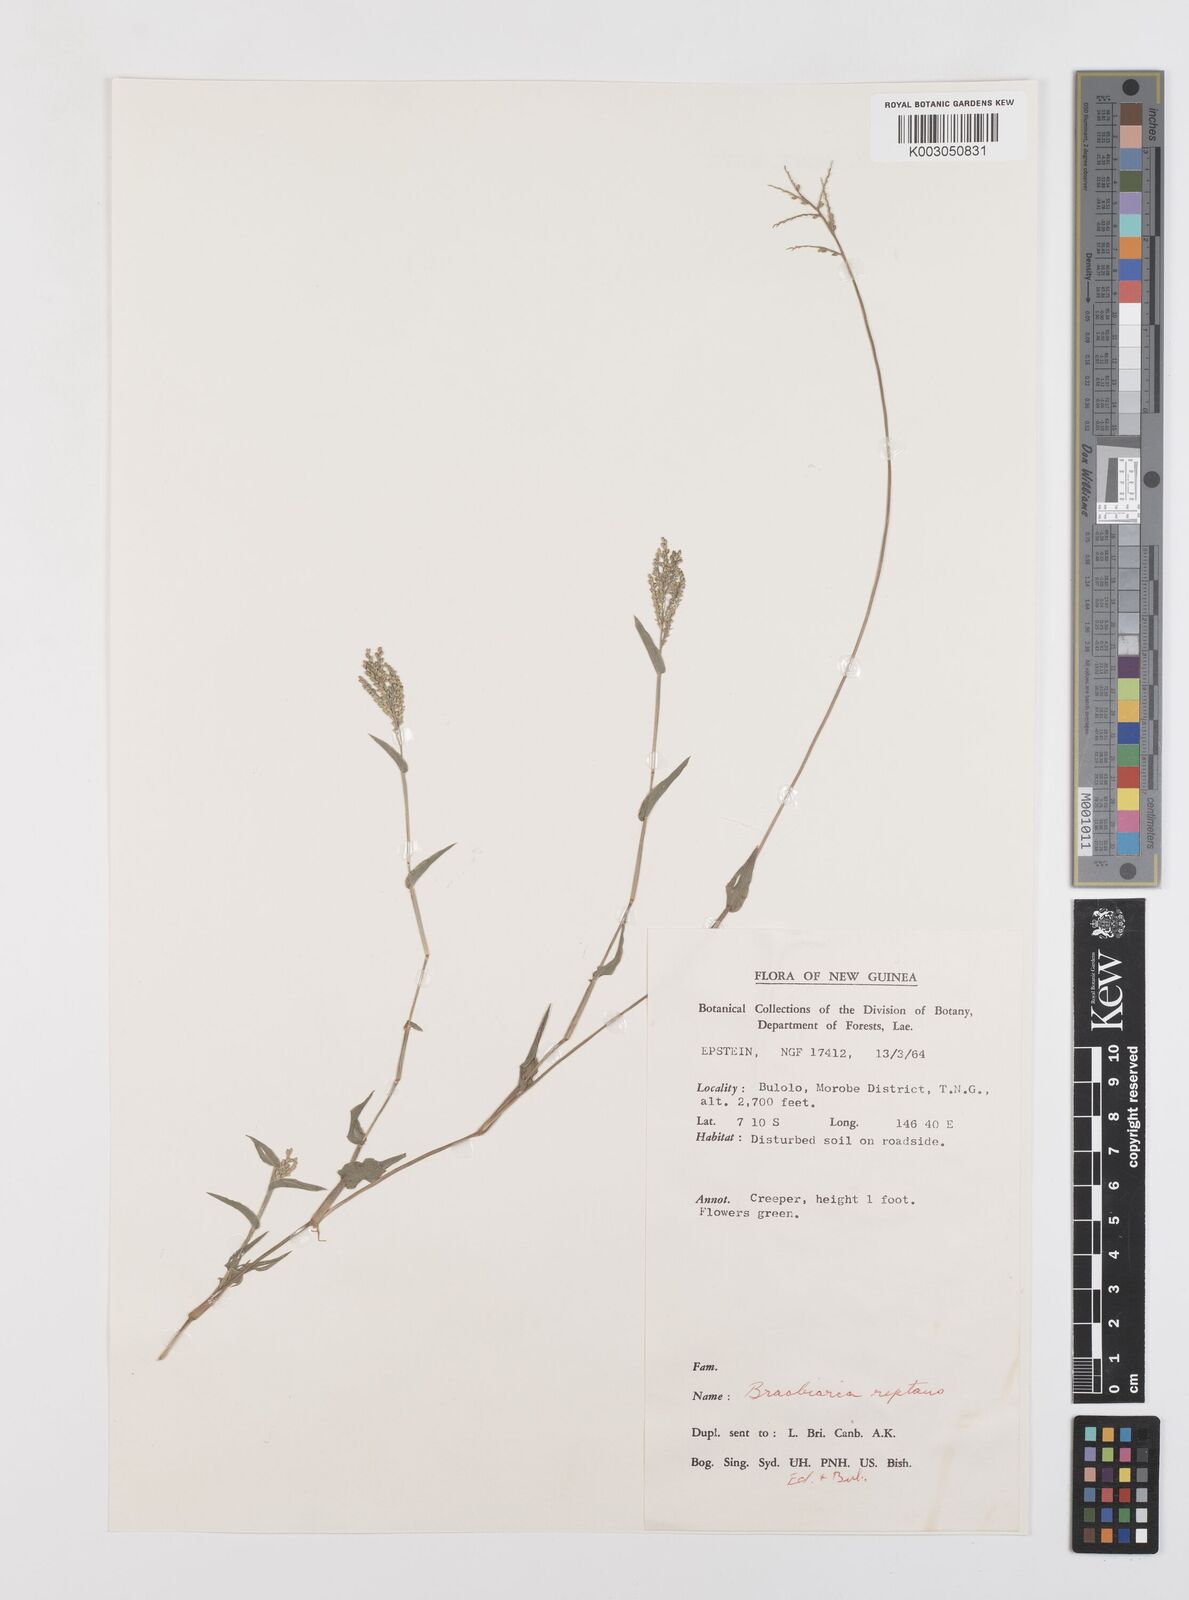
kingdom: Plantae
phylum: Tracheophyta
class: Liliopsida
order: Poales
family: Poaceae
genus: Urochloa
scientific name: Urochloa reptans
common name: Sprawling signalgrass
